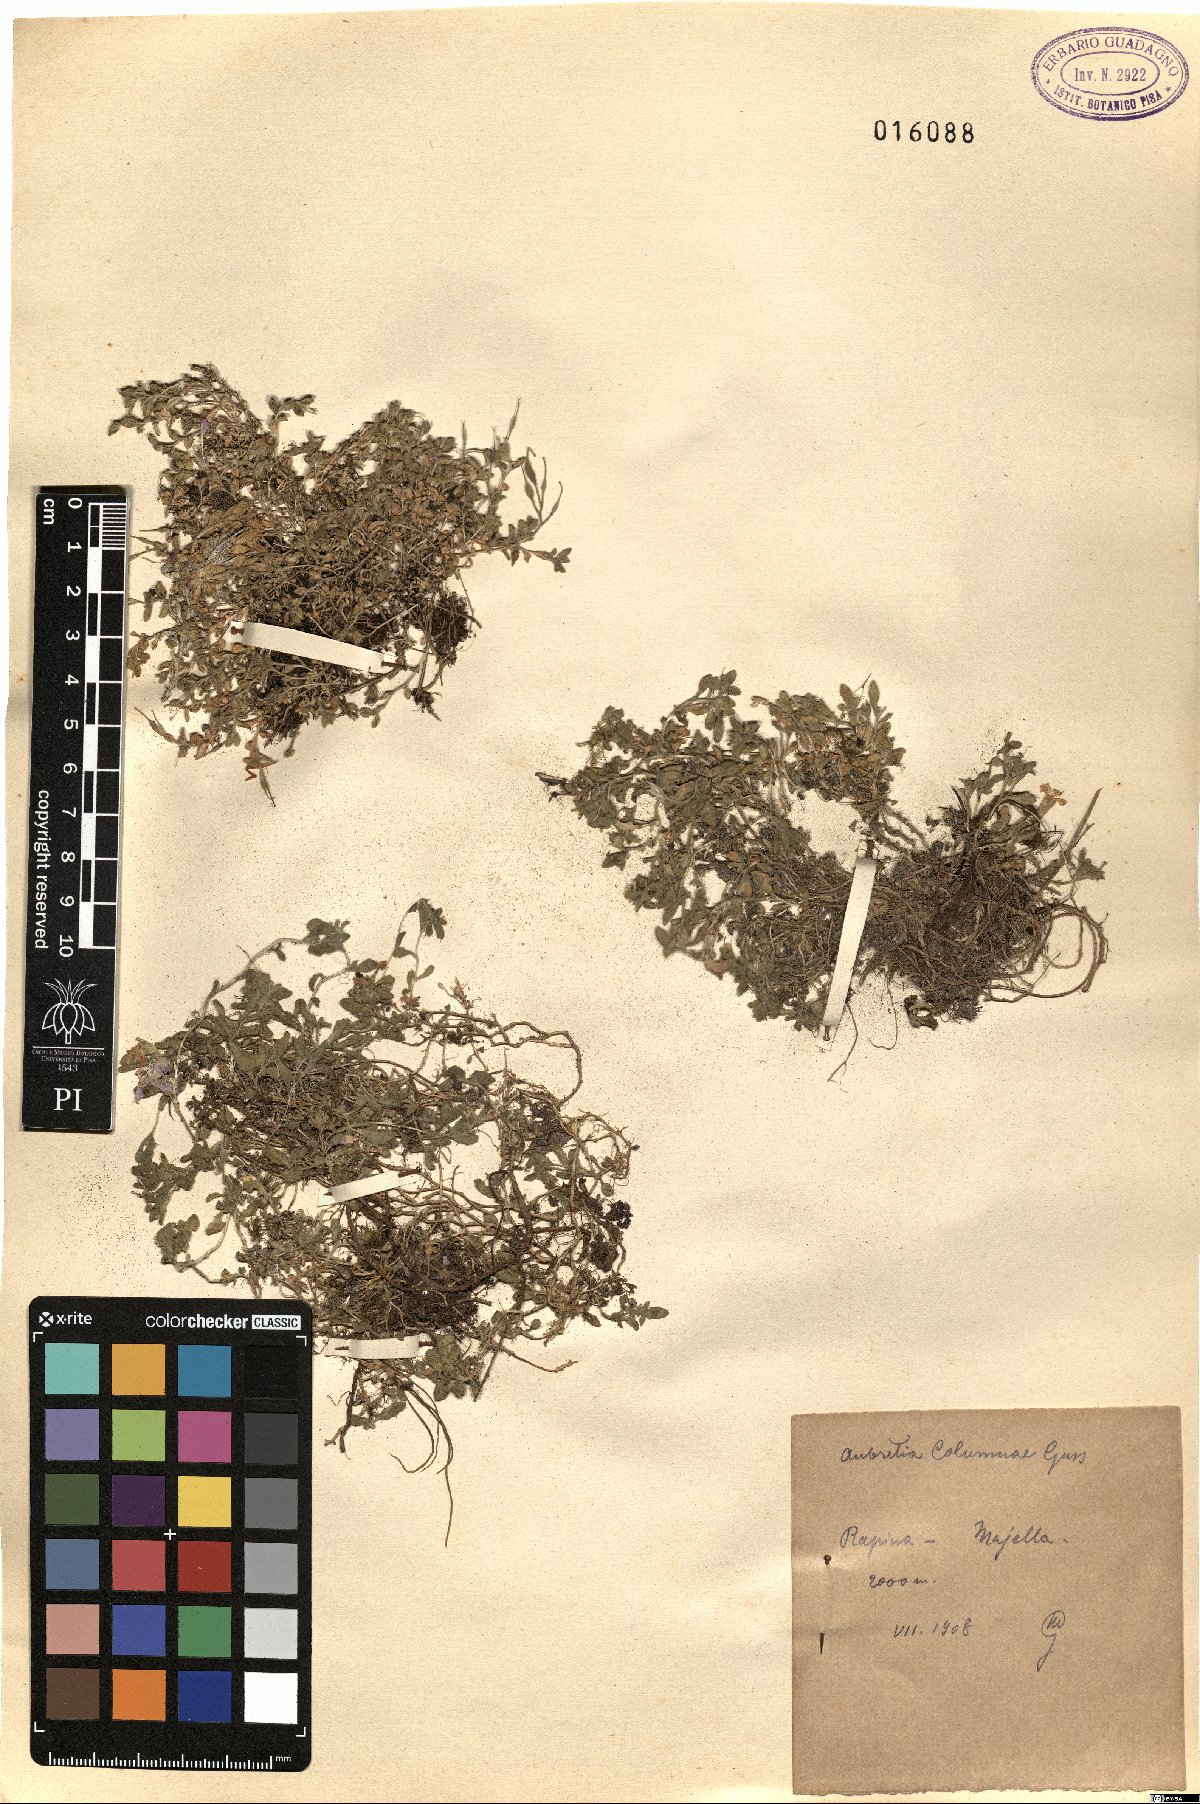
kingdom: Plantae
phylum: Tracheophyta
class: Magnoliopsida
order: Brassicales
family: Brassicaceae
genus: Aubrieta
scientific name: Aubrieta columnae
